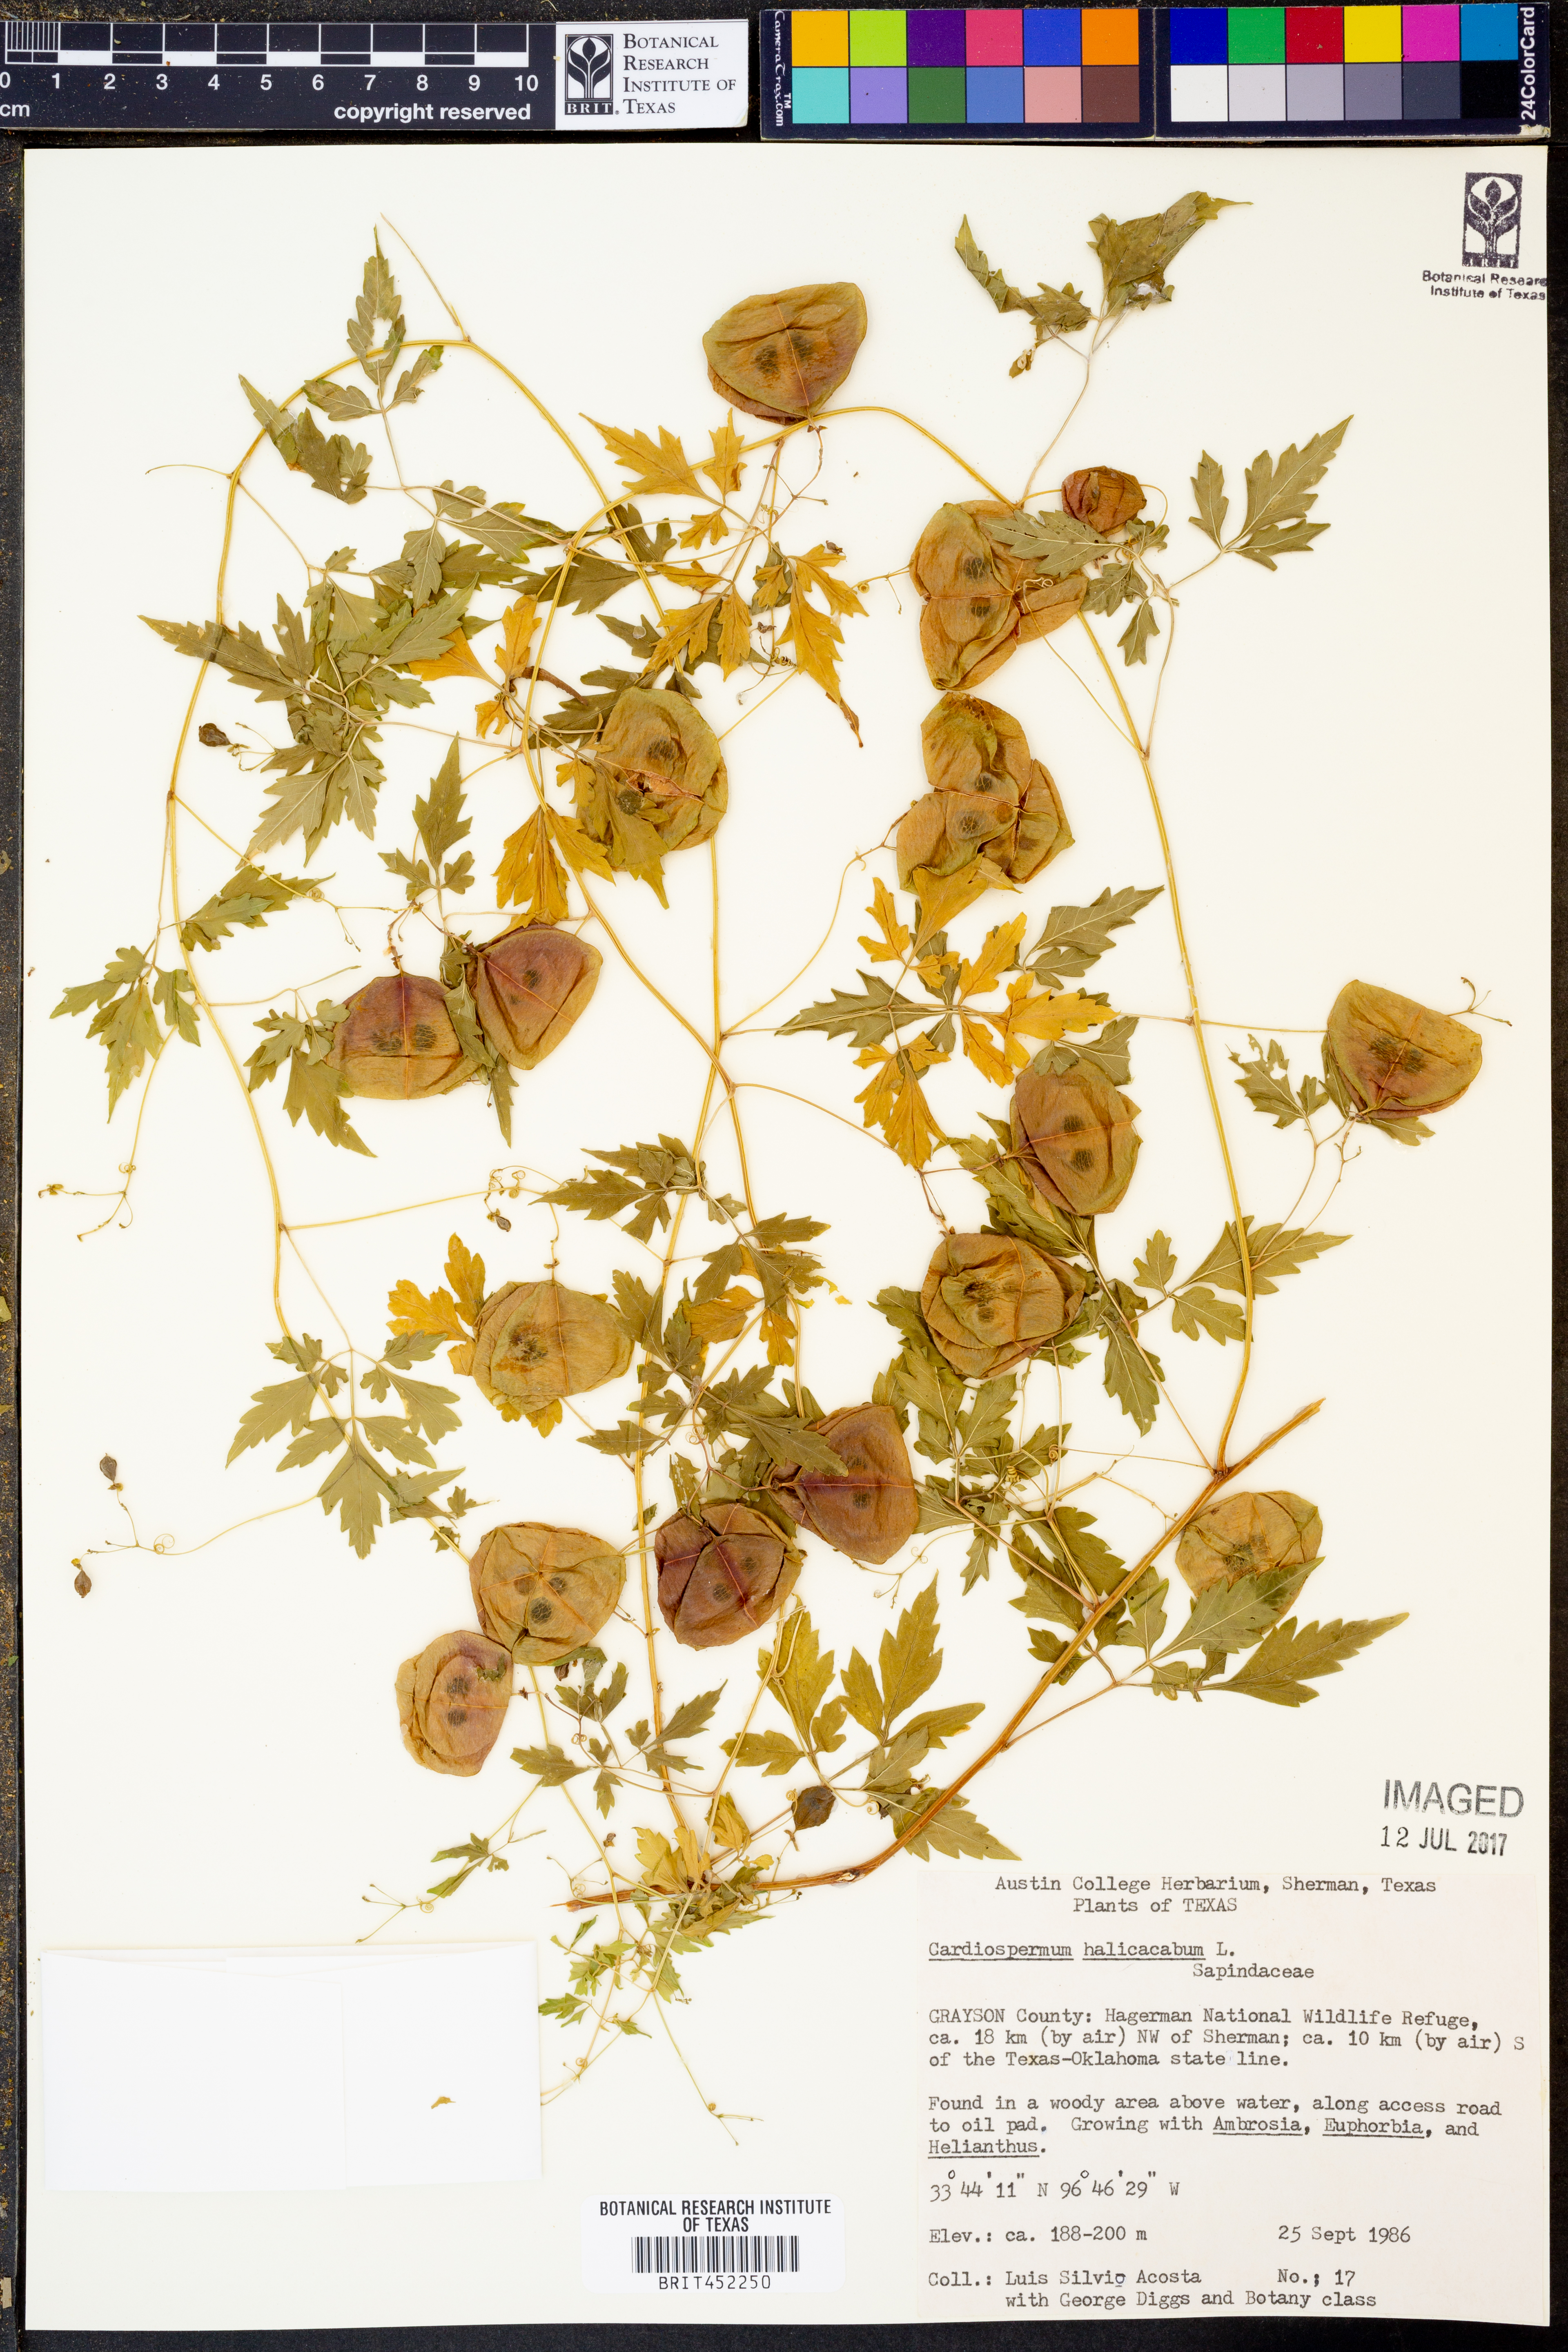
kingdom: Plantae
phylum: Tracheophyta
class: Magnoliopsida
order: Sapindales
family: Sapindaceae
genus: Cardiospermum
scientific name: Cardiospermum halicacabum
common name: Balloon vine
